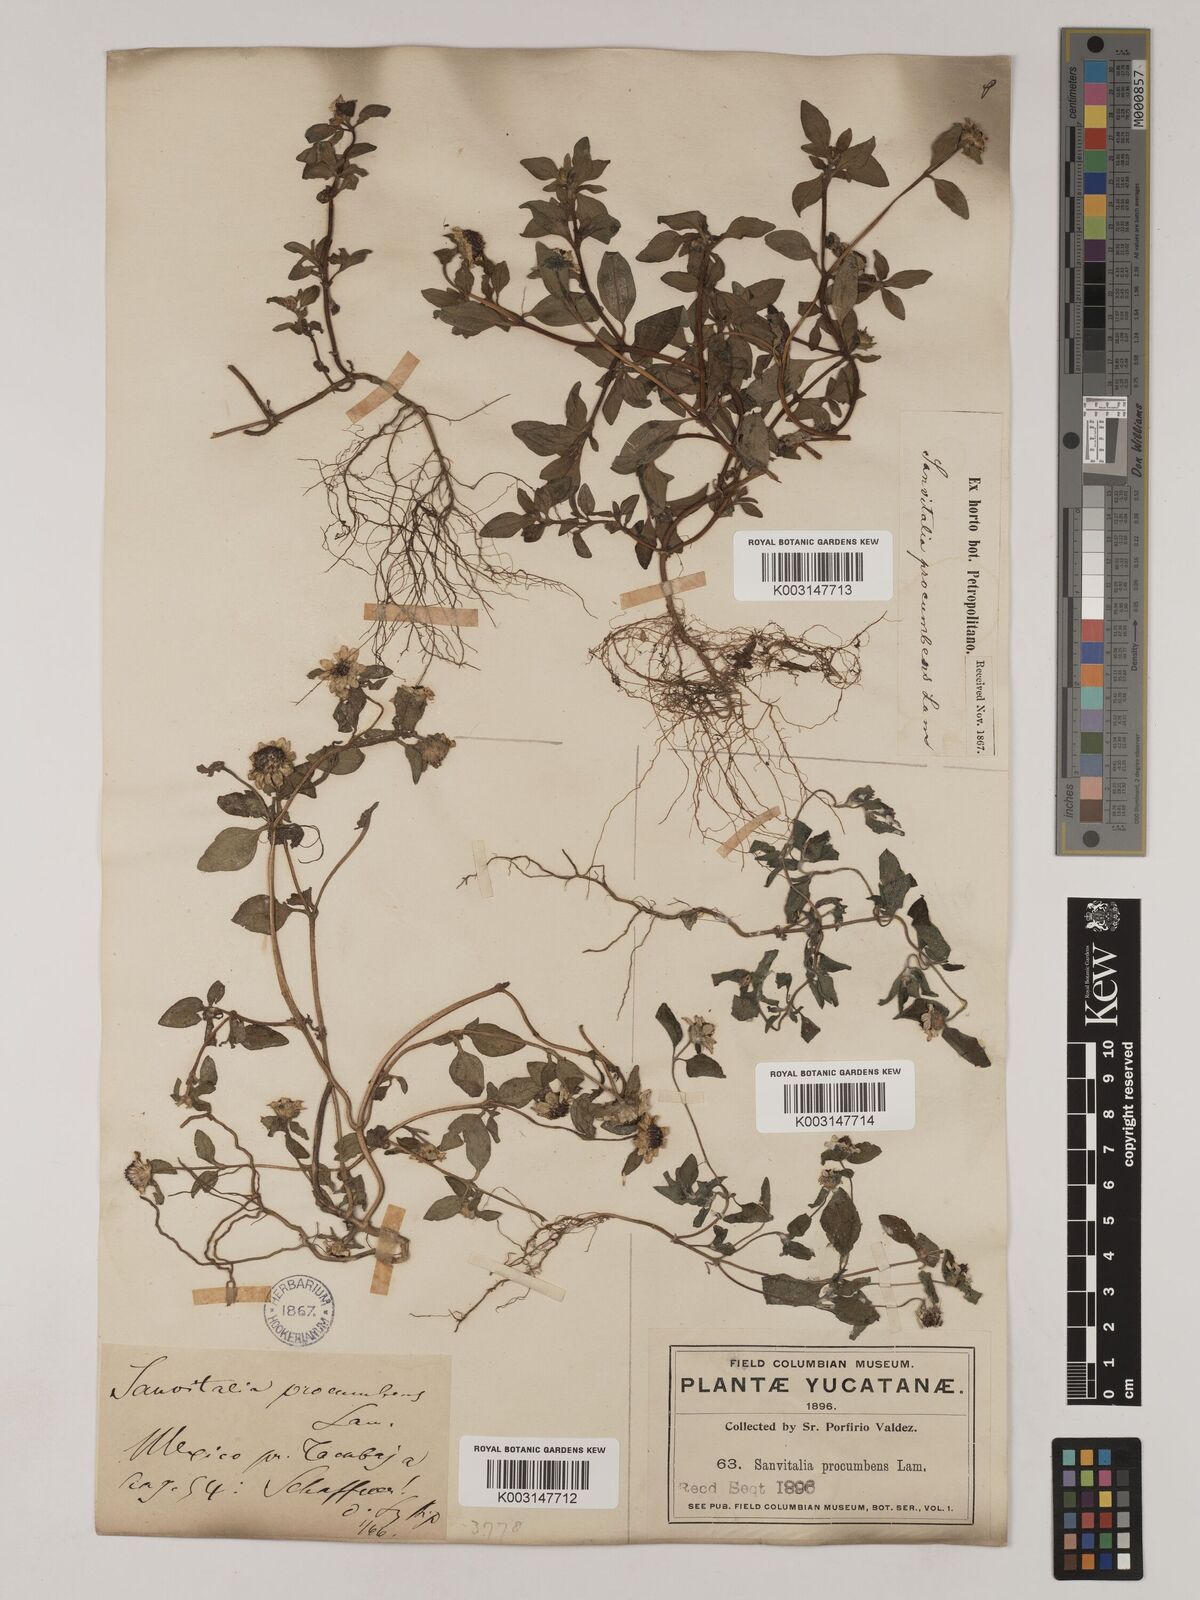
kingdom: Plantae
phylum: Tracheophyta
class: Magnoliopsida
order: Asterales
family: Asteraceae
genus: Sanvitalia
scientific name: Sanvitalia procumbens
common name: Mexican creeping zinnia
